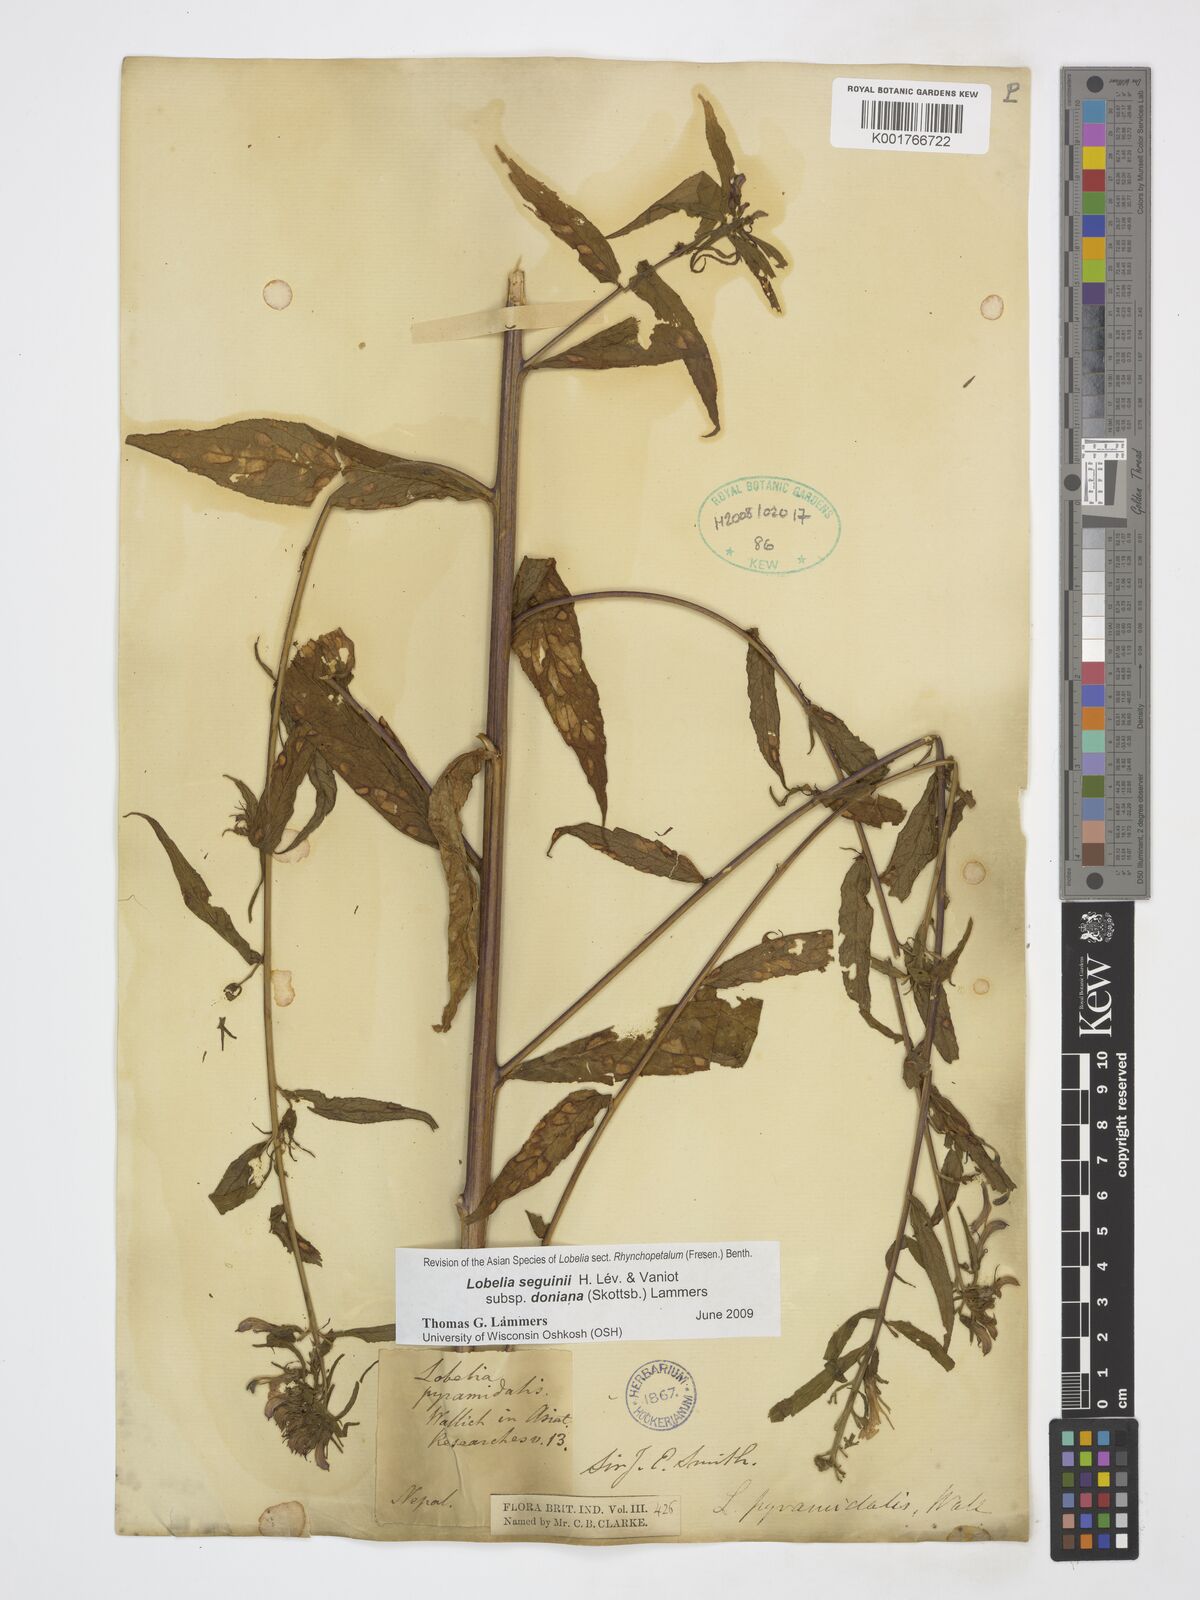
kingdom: Plantae
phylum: Tracheophyta
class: Magnoliopsida
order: Asterales
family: Campanulaceae
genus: Lobelia
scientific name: Lobelia seguinii
